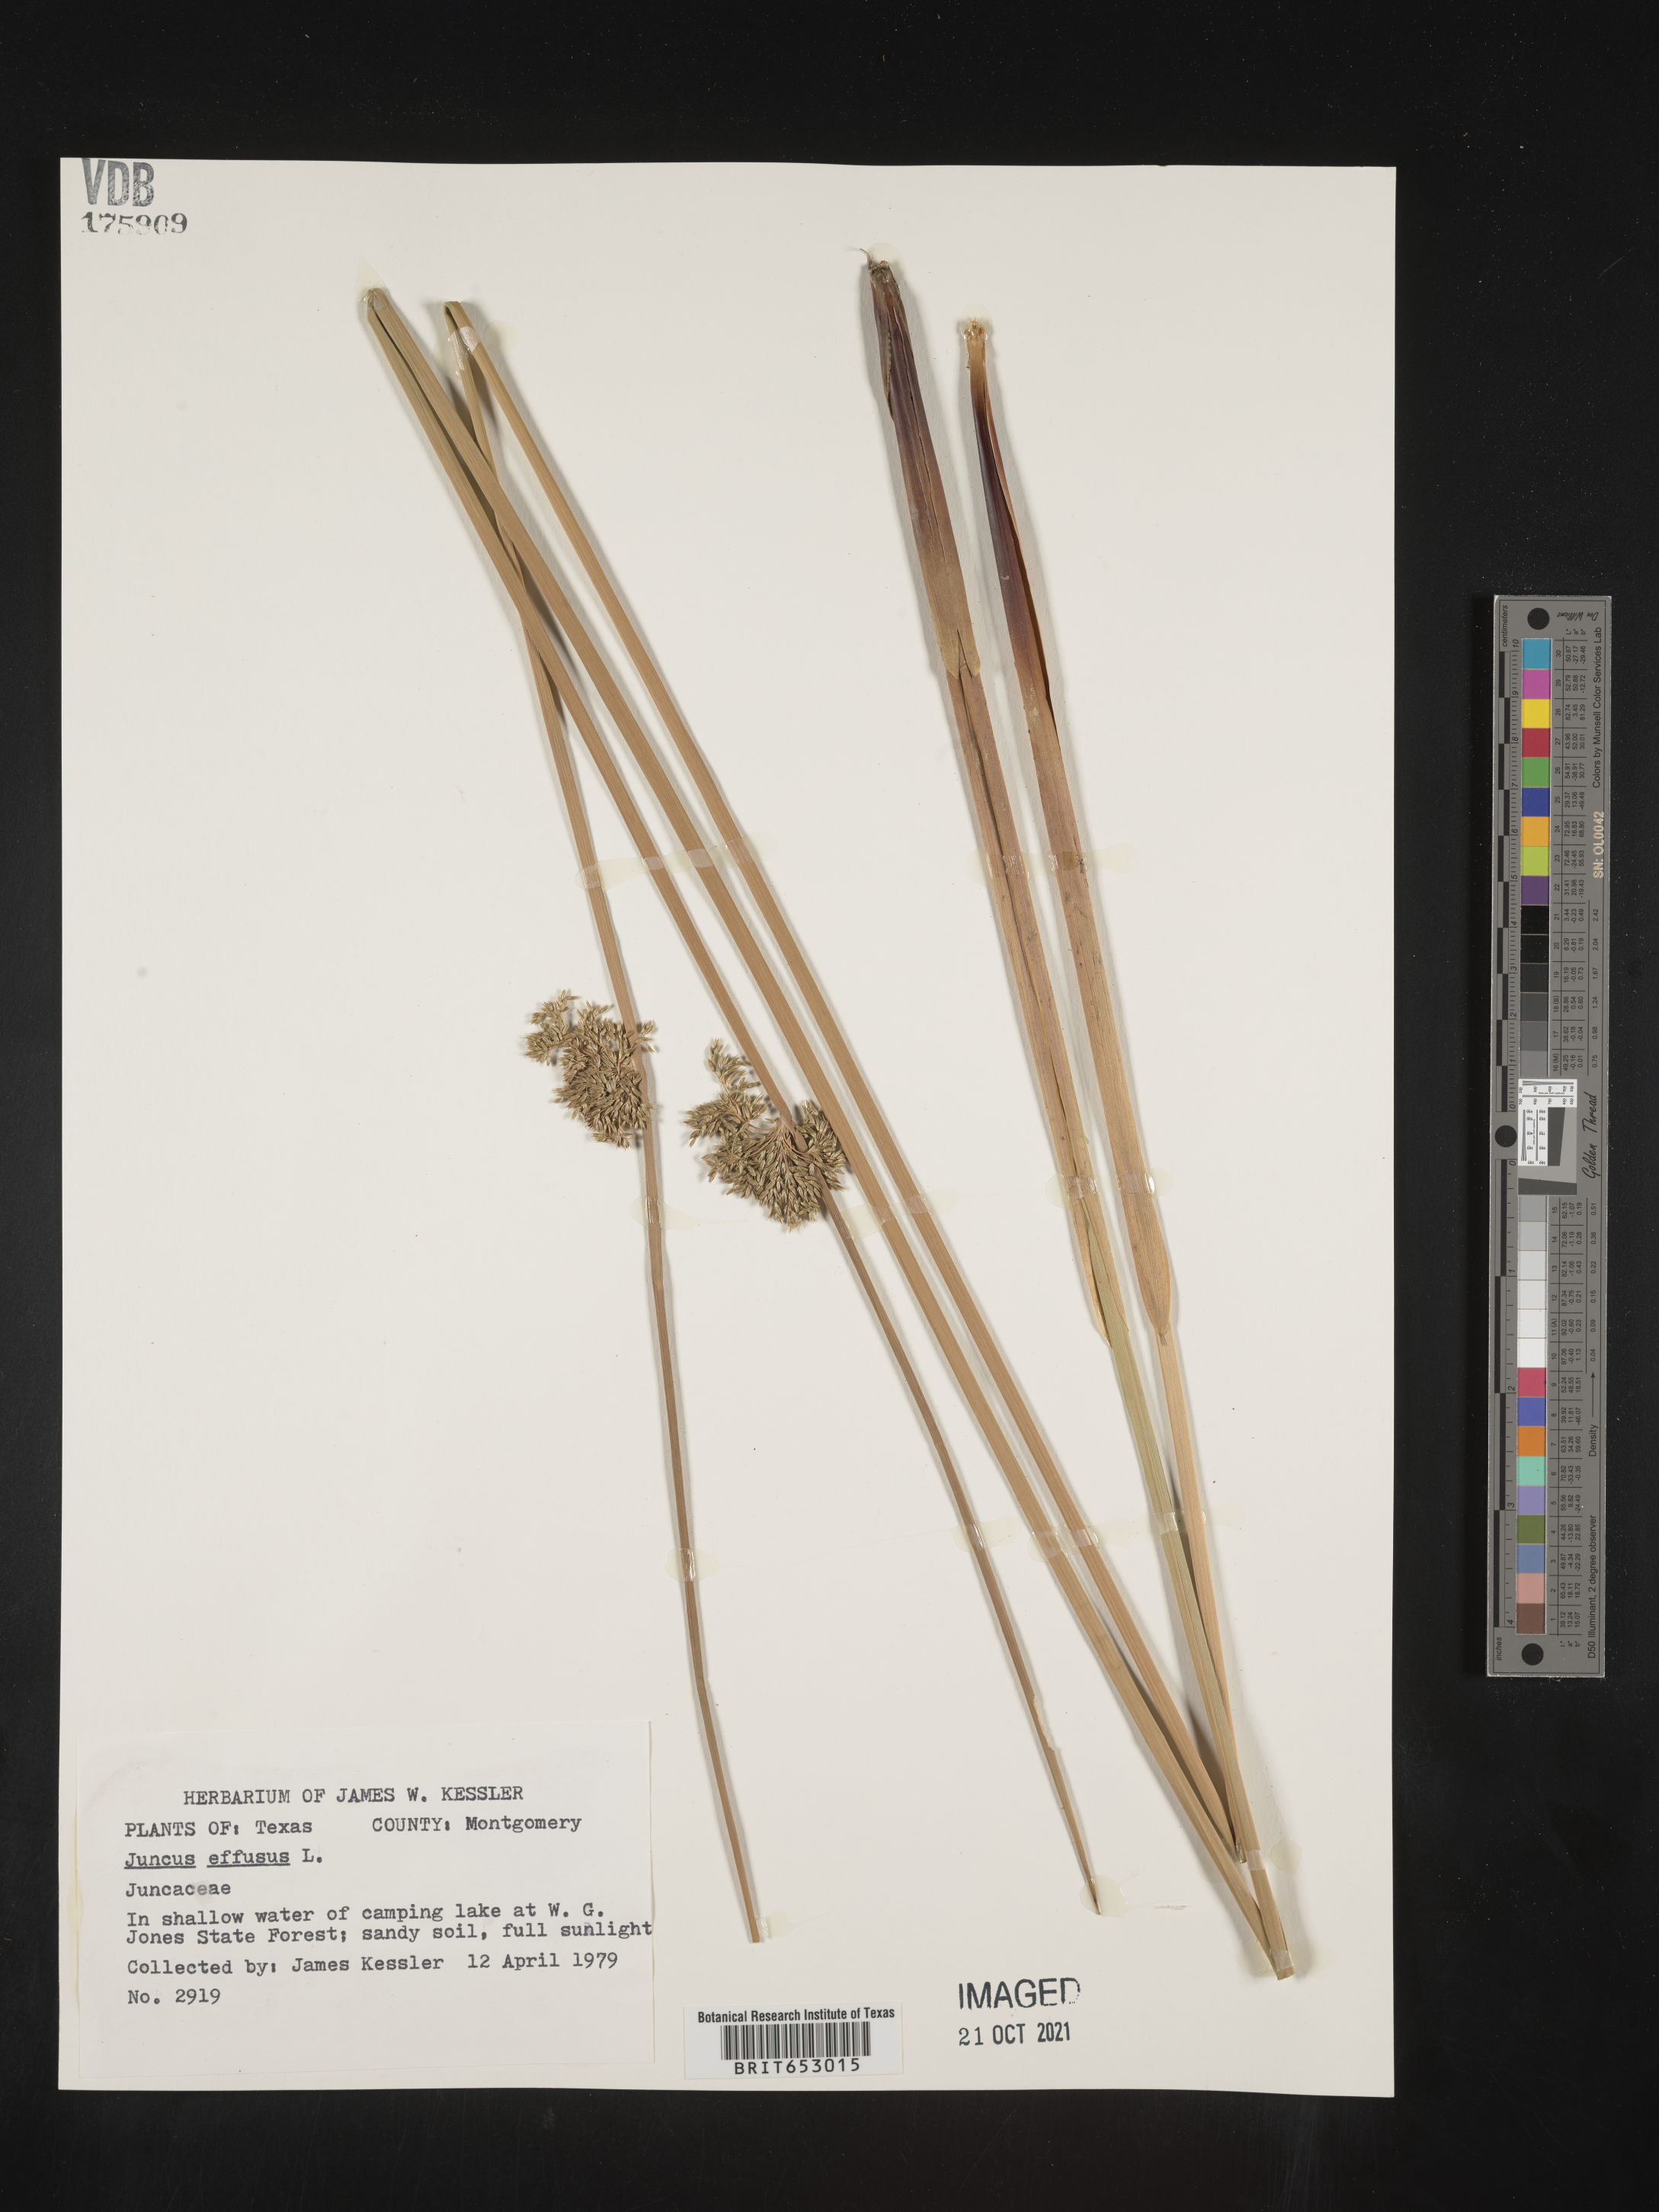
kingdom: Plantae
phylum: Tracheophyta
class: Liliopsida
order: Poales
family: Juncaceae
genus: Juncus
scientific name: Juncus effusus
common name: Soft rush
